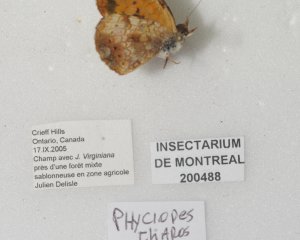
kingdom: Animalia
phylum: Arthropoda
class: Insecta
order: Lepidoptera
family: Nymphalidae
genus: Phyciodes
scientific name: Phyciodes tharos
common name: Pearl Crescent
